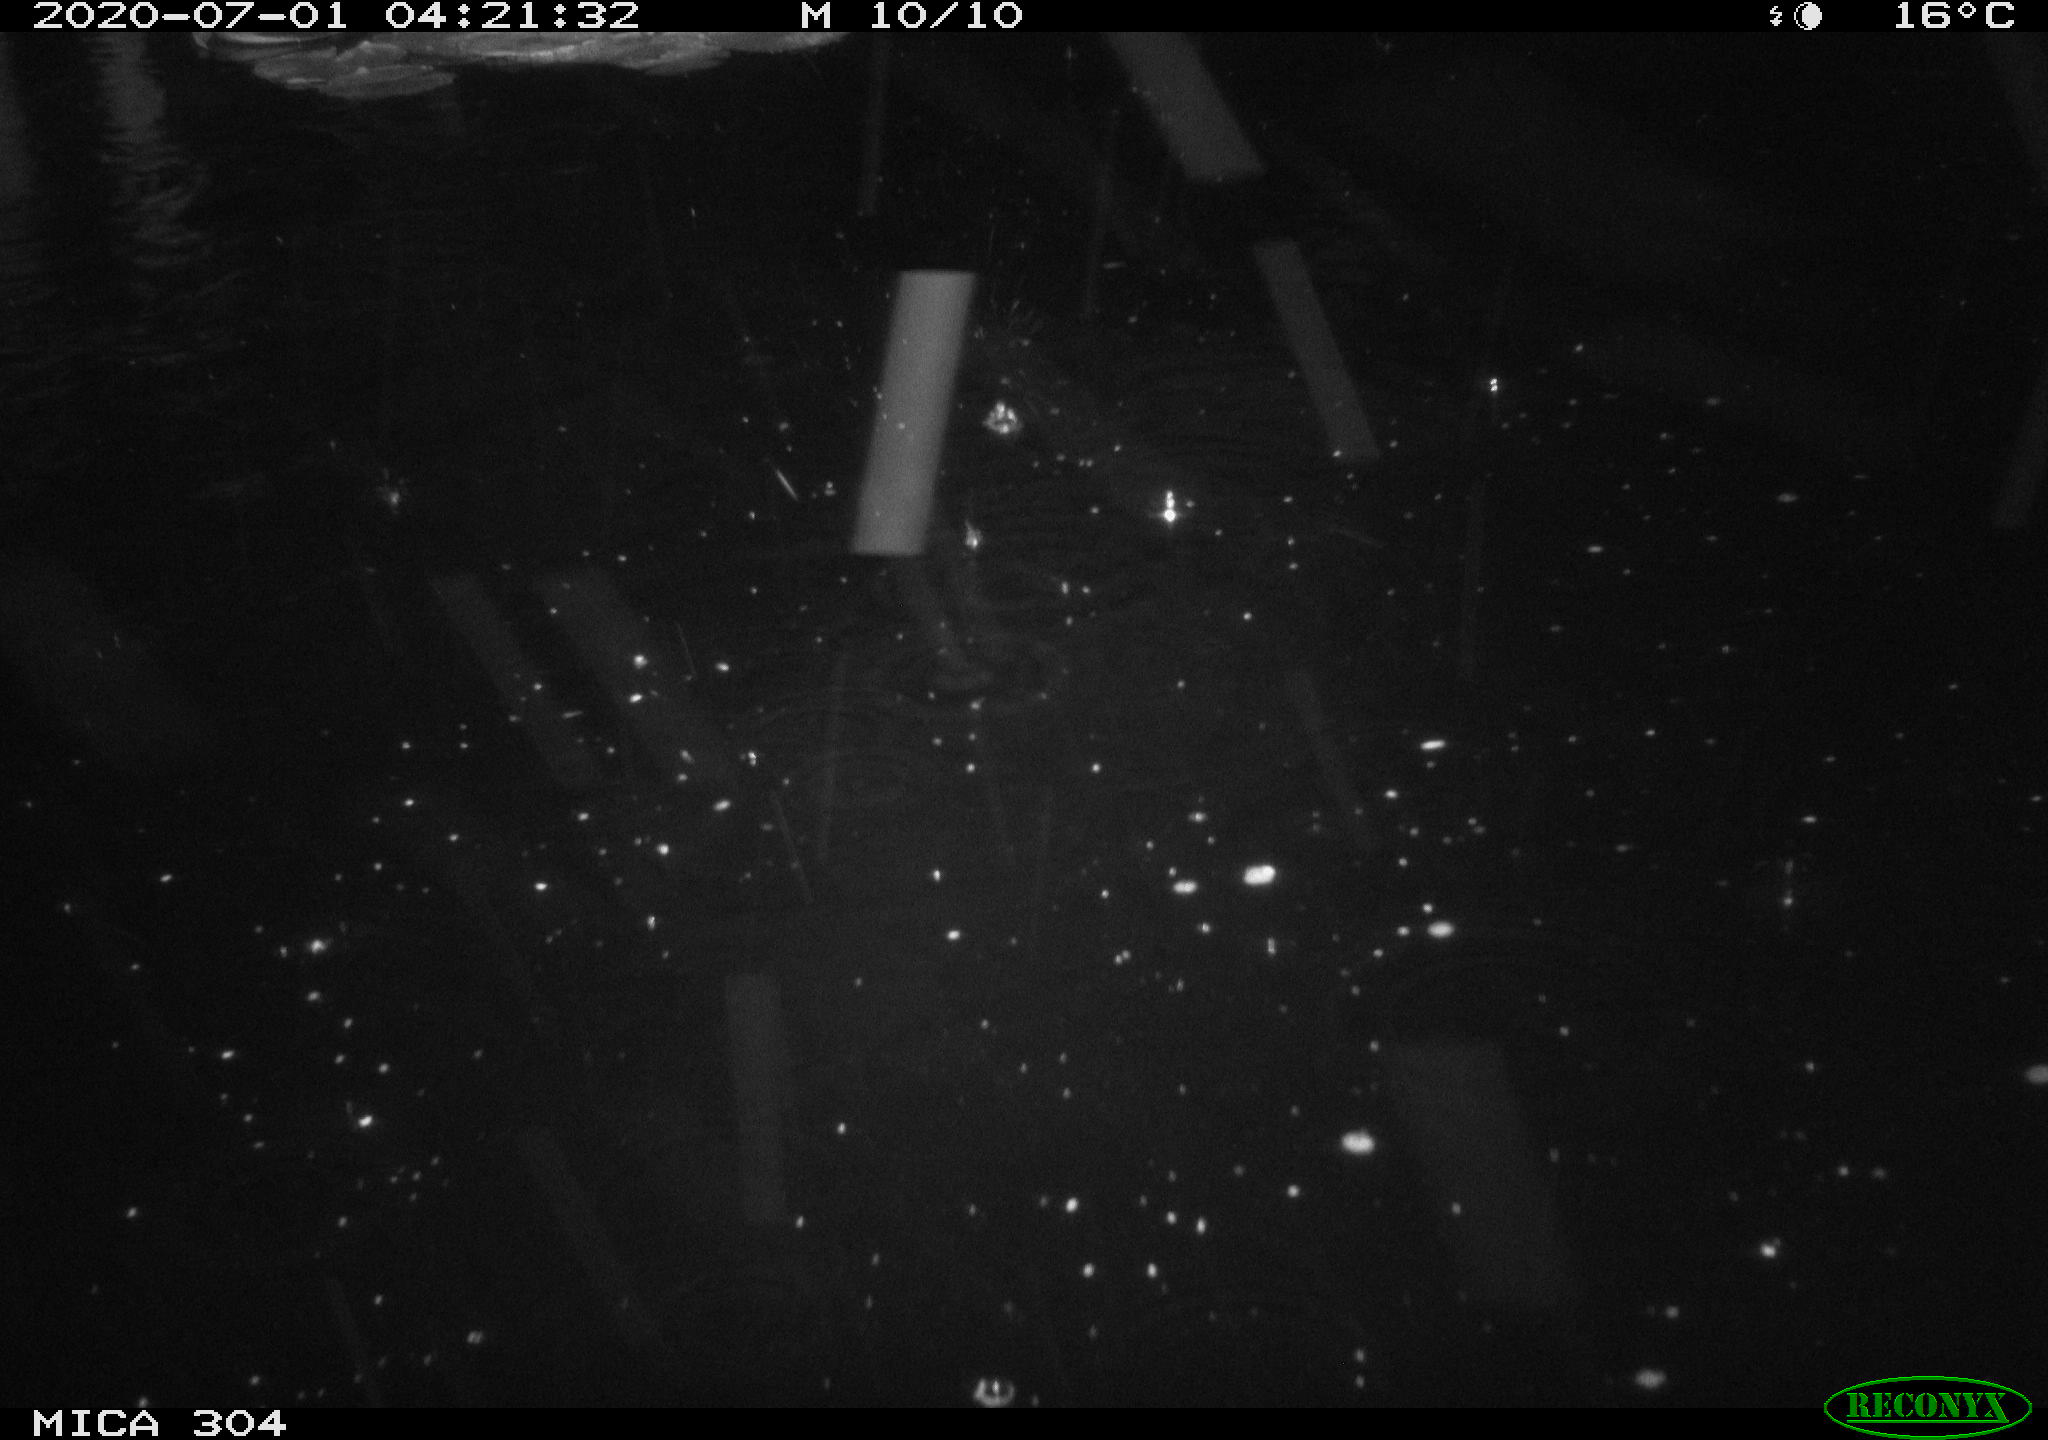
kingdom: Animalia
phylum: Chordata
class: Mammalia
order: Rodentia
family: Cricetidae
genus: Ondatra
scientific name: Ondatra zibethicus
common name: Muskrat
